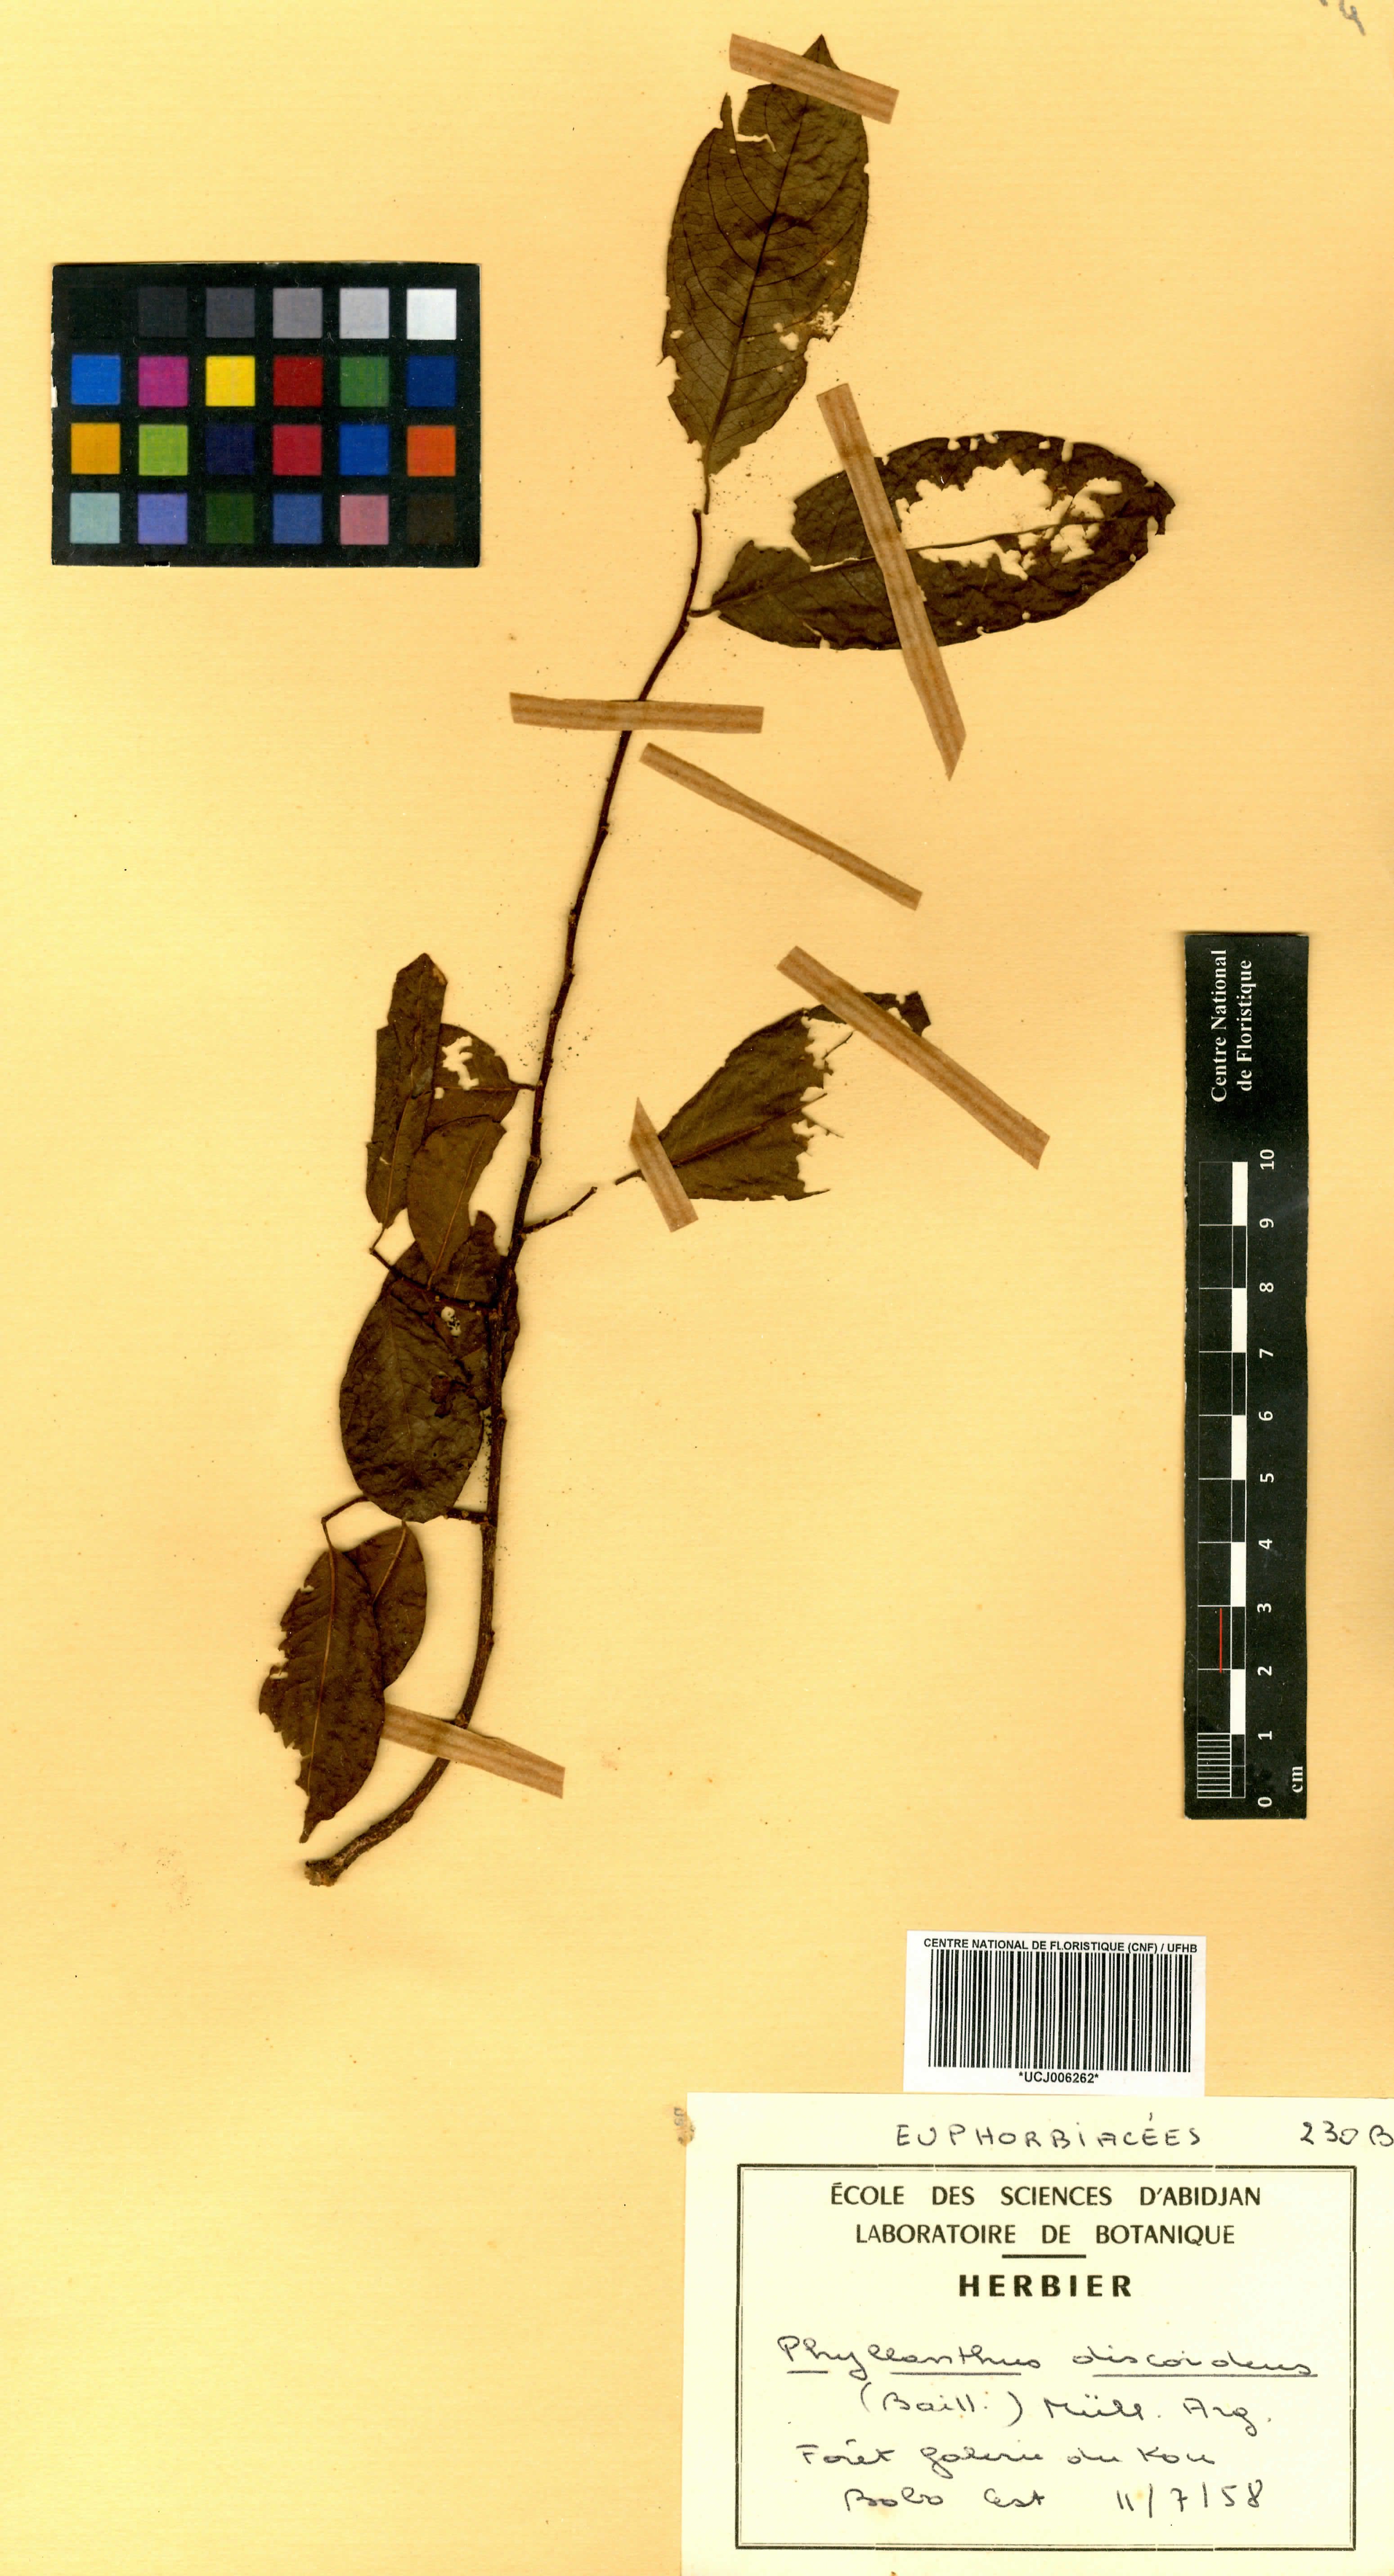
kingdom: Plantae
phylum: Tracheophyta
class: Magnoliopsida
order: Malpighiales
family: Phyllanthaceae
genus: Margaritaria
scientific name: Margaritaria discoidea
